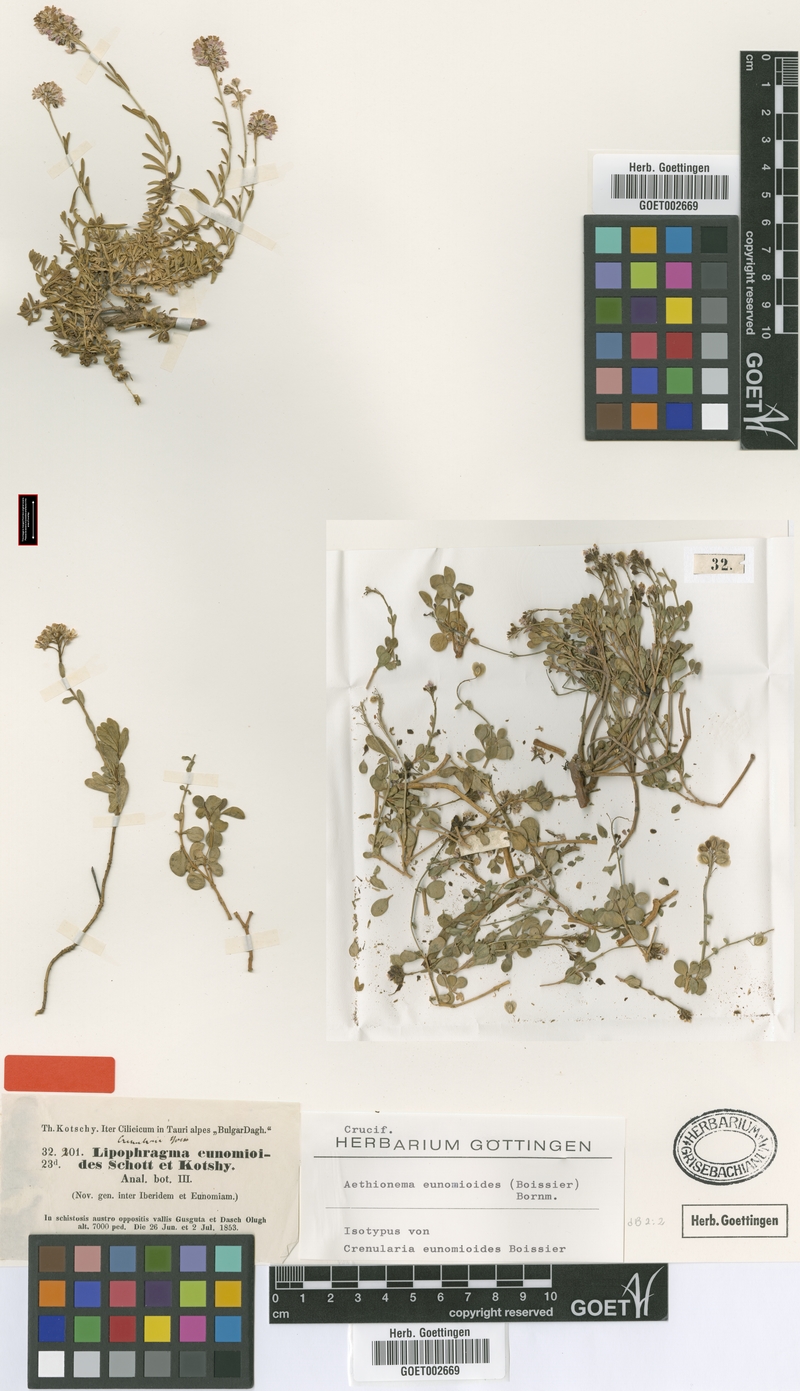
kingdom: Plantae
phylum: Tracheophyta
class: Magnoliopsida
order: Brassicales
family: Brassicaceae
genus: Aethionema
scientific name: Aethionema eunomioides
